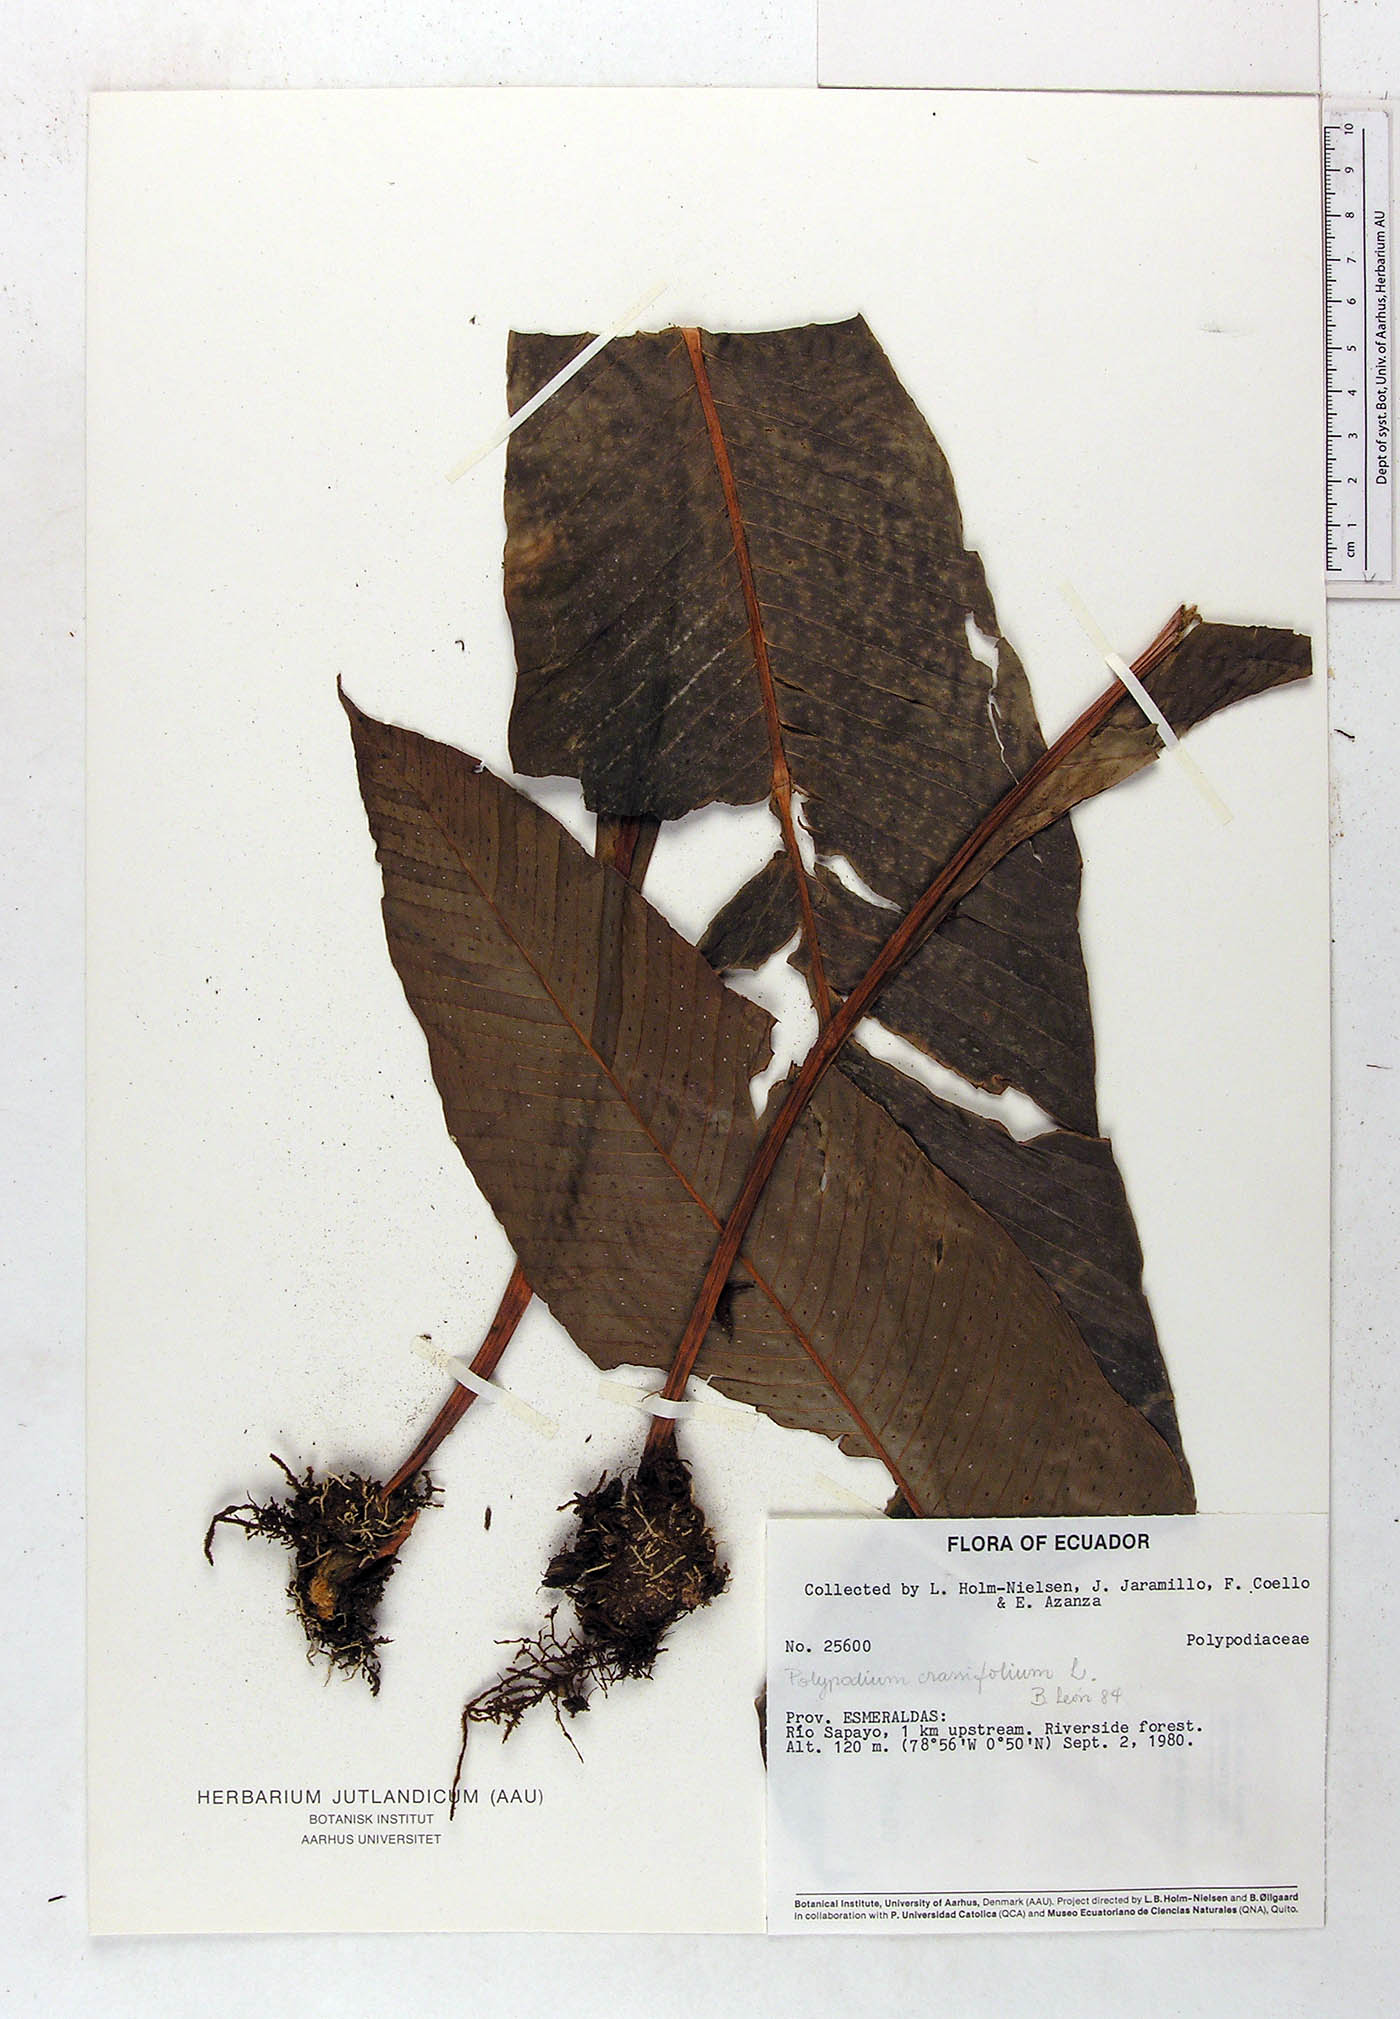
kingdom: Plantae
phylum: Tracheophyta
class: Polypodiopsida
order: Polypodiales
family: Polypodiaceae
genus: Niphidium
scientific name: Niphidium crassifolium
